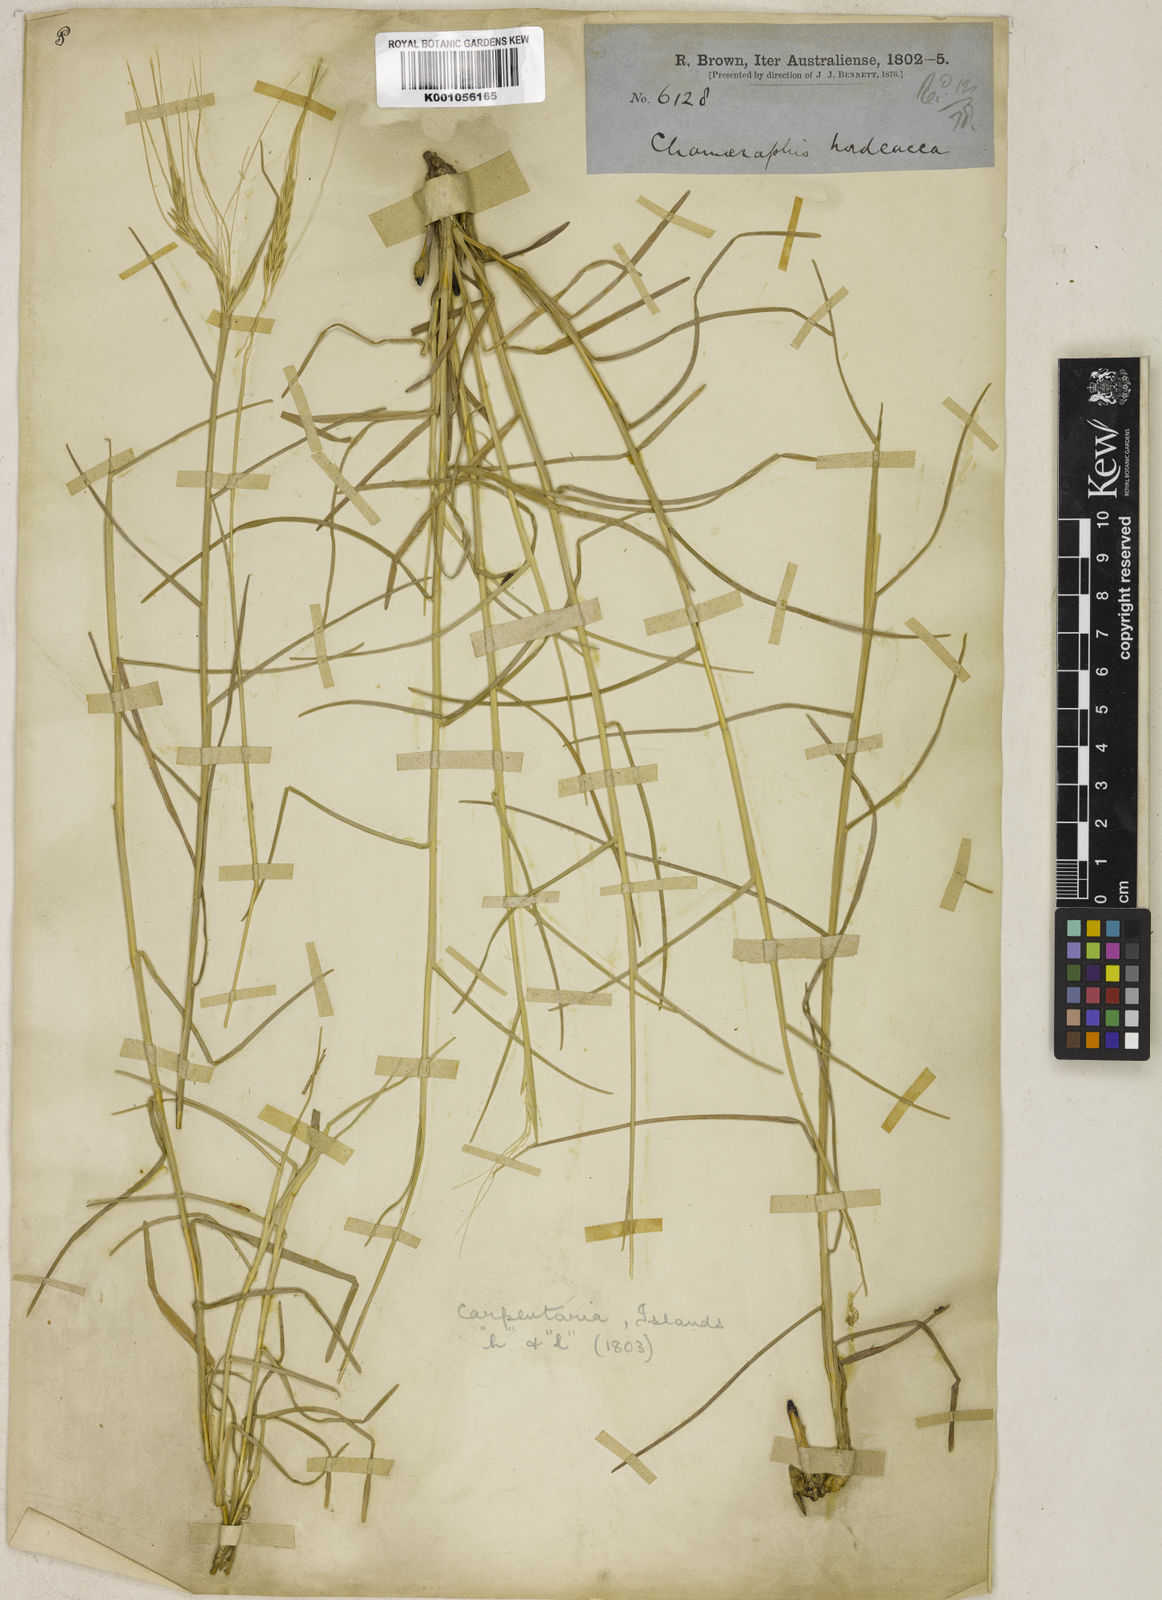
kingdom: Plantae
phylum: Tracheophyta
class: Liliopsida
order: Poales
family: Poaceae
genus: Chamaeraphis
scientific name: Chamaeraphis hordeacea
